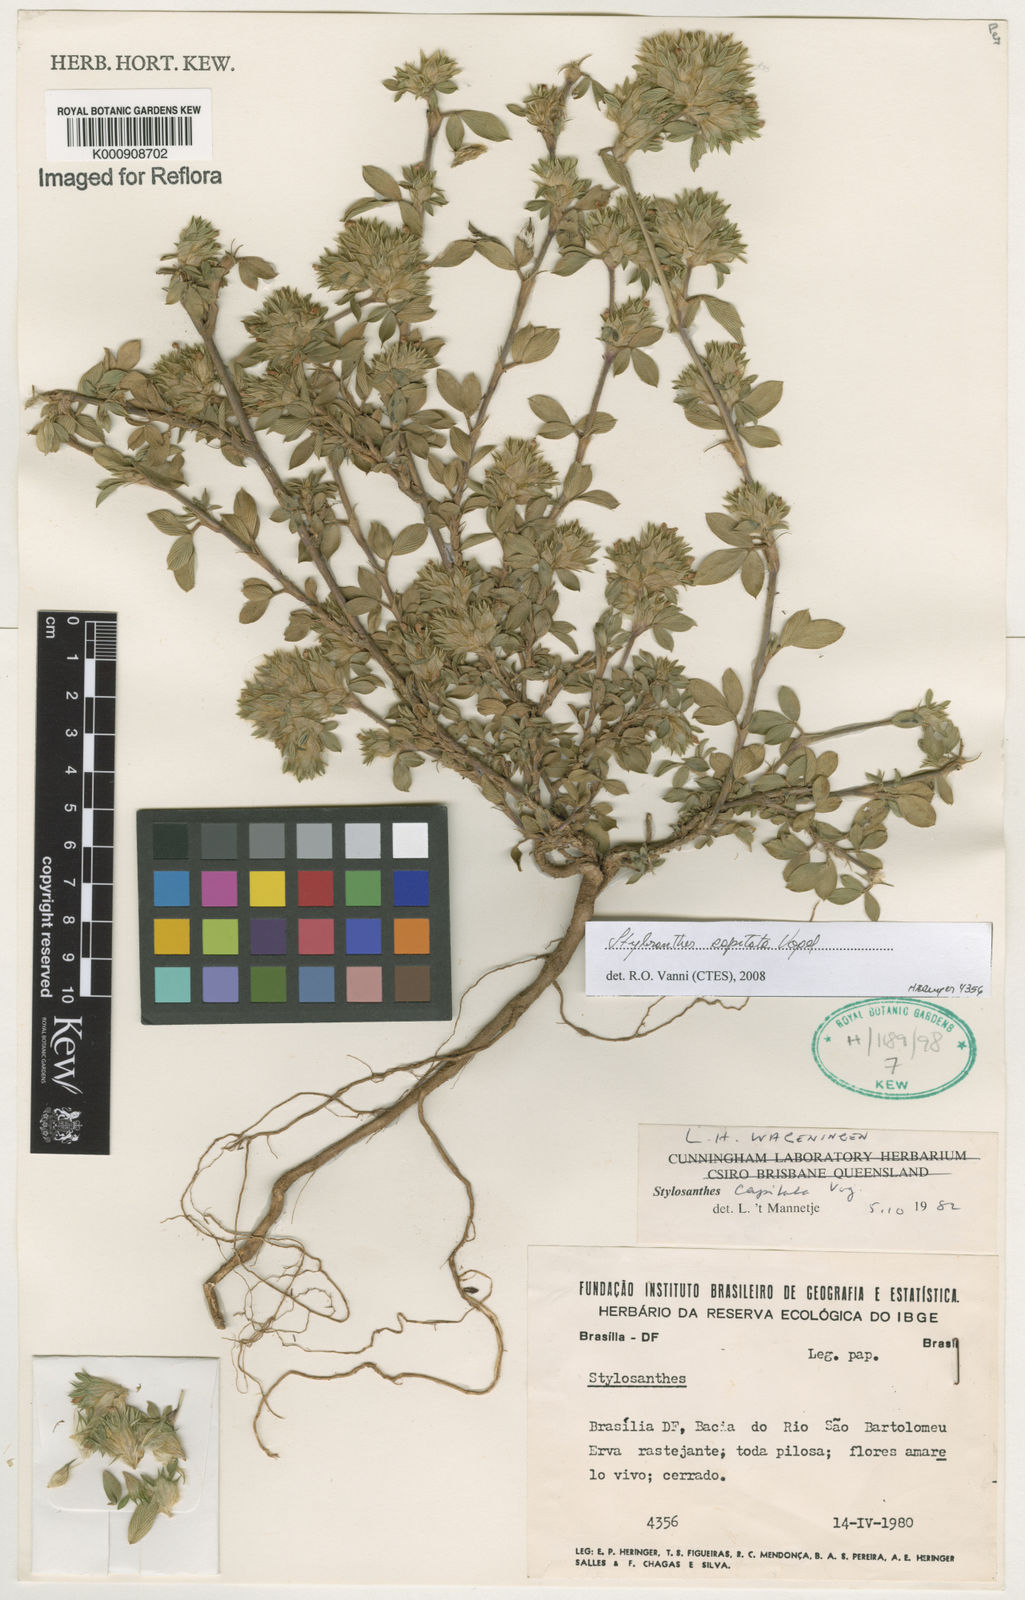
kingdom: Plantae
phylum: Tracheophyta
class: Magnoliopsida
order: Fabales
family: Fabaceae
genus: Stylosanthes
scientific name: Stylosanthes capitata
